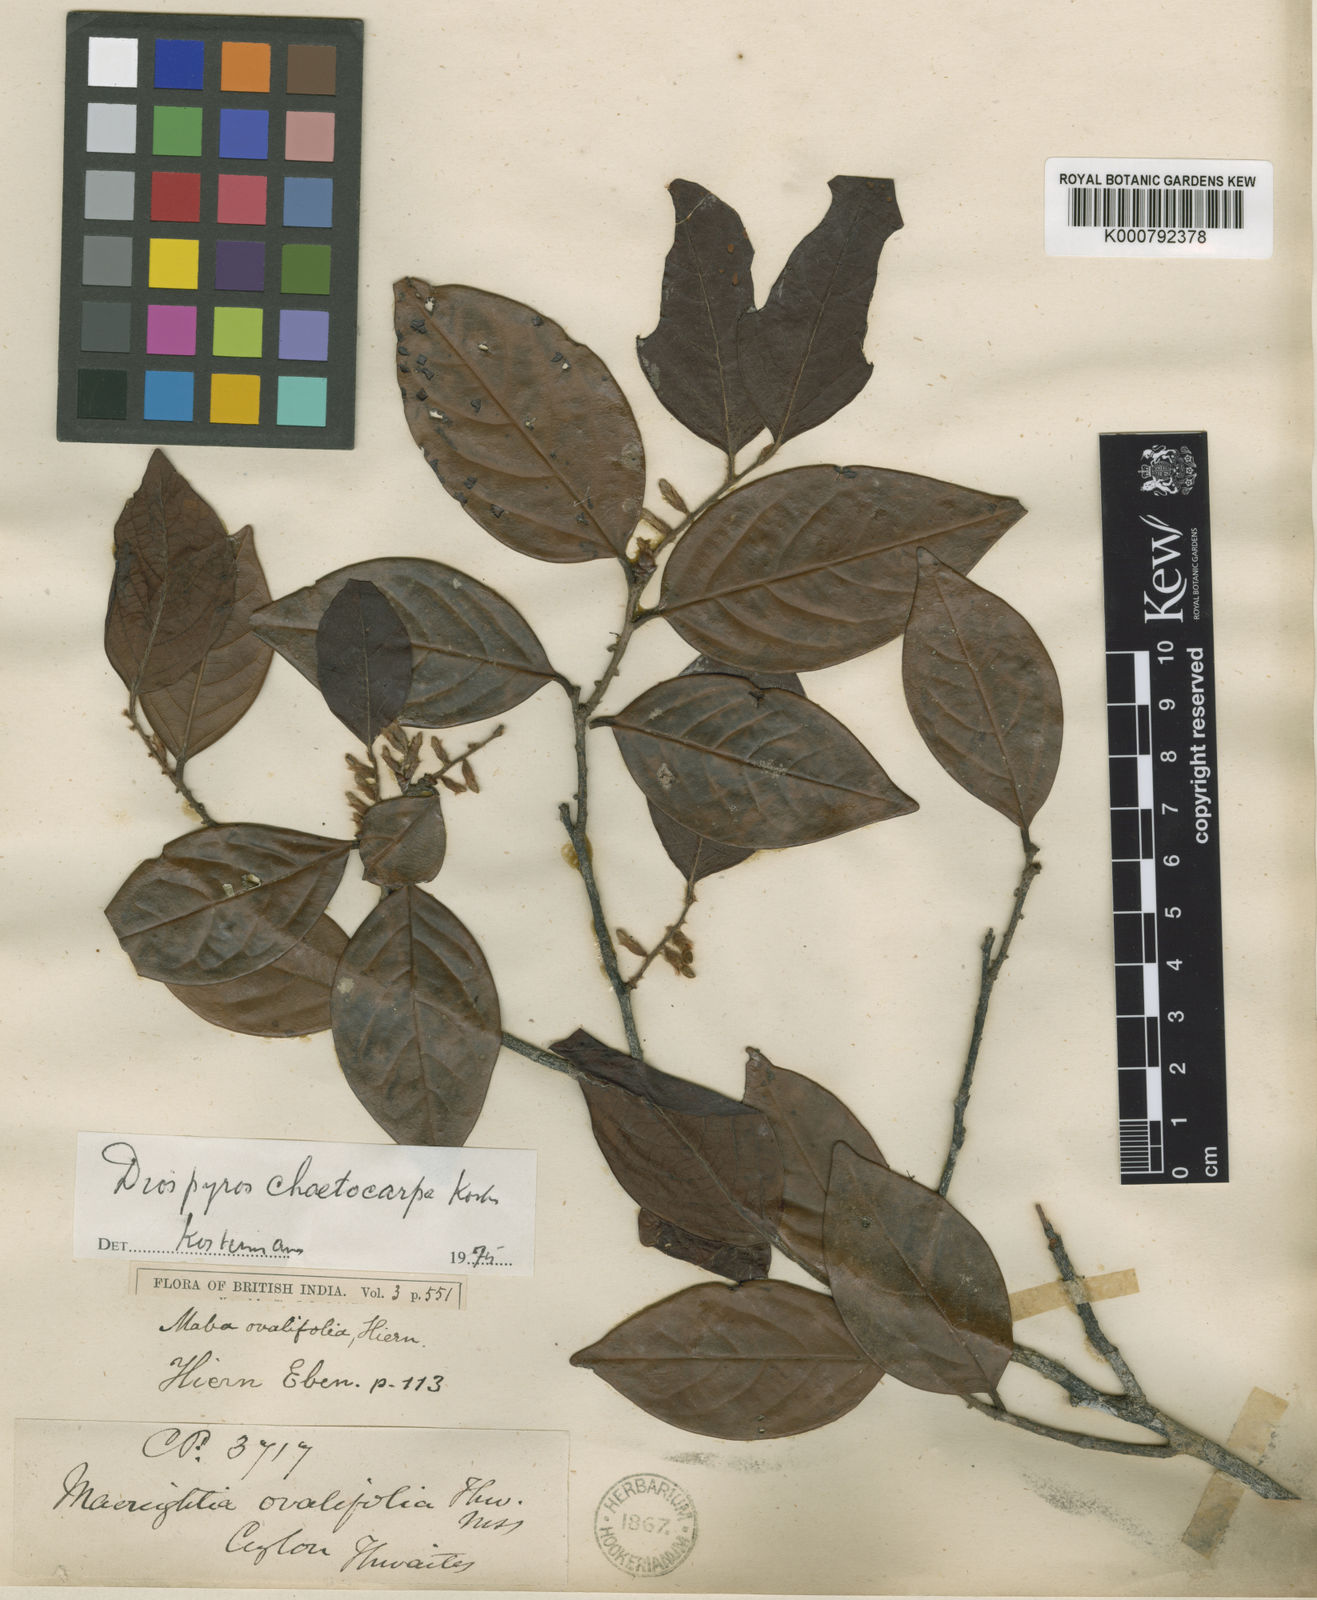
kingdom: Plantae
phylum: Tracheophyta
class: Magnoliopsida
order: Ericales
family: Ebenaceae
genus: Diospyros
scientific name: Diospyros chaetocarpa
